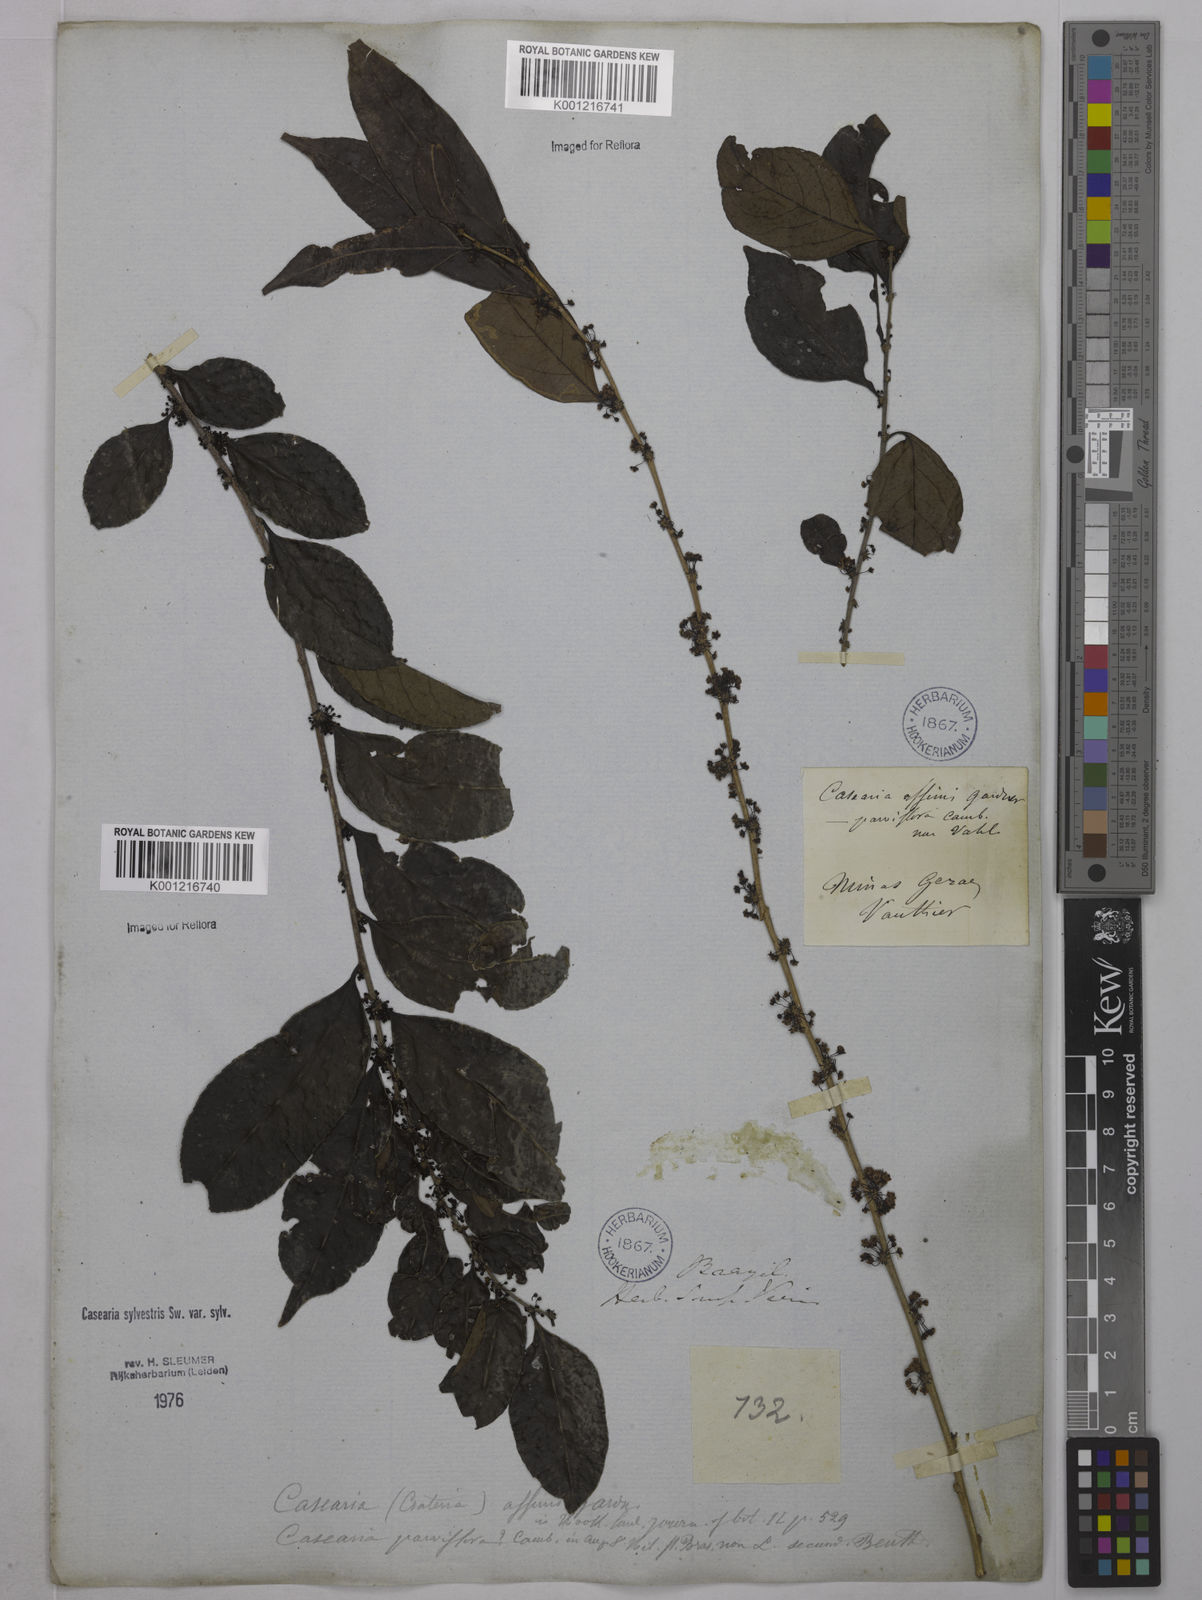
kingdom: Plantae
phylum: Tracheophyta
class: Magnoliopsida
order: Malpighiales
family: Salicaceae
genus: Casearia
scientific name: Casearia sylvestris
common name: Wild sage
